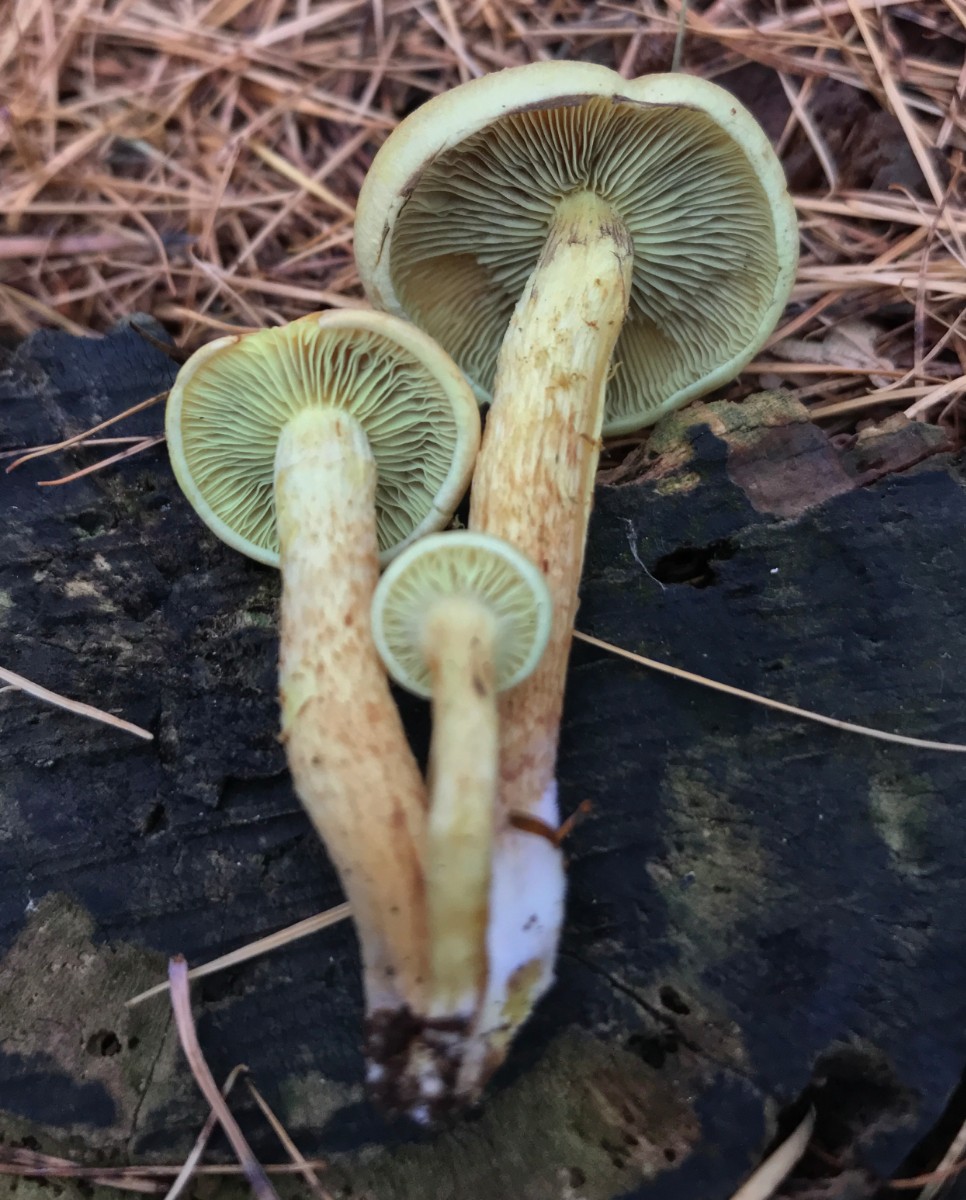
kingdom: Fungi
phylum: Basidiomycota
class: Agaricomycetes
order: Agaricales
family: Strophariaceae
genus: Hypholoma
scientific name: Hypholoma fasciculare
